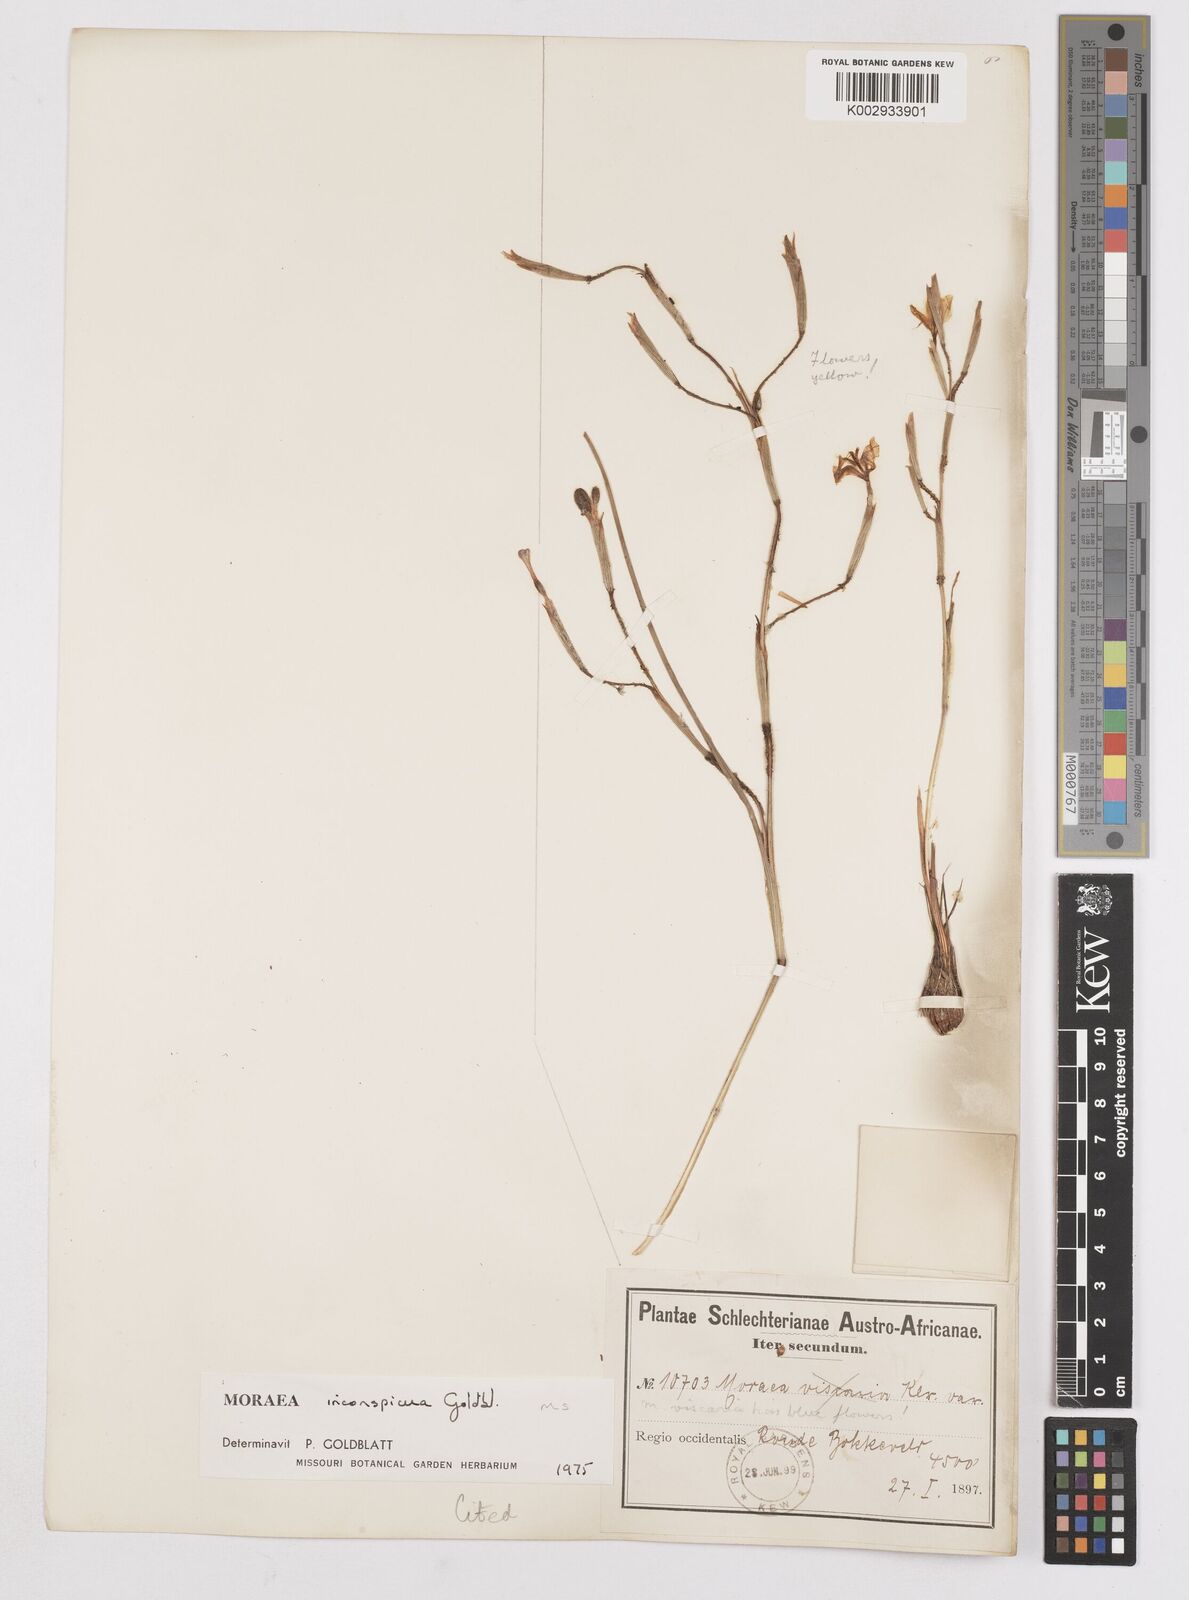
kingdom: Plantae
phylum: Tracheophyta
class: Liliopsida
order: Asparagales
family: Iridaceae
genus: Moraea
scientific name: Moraea inconspicua
